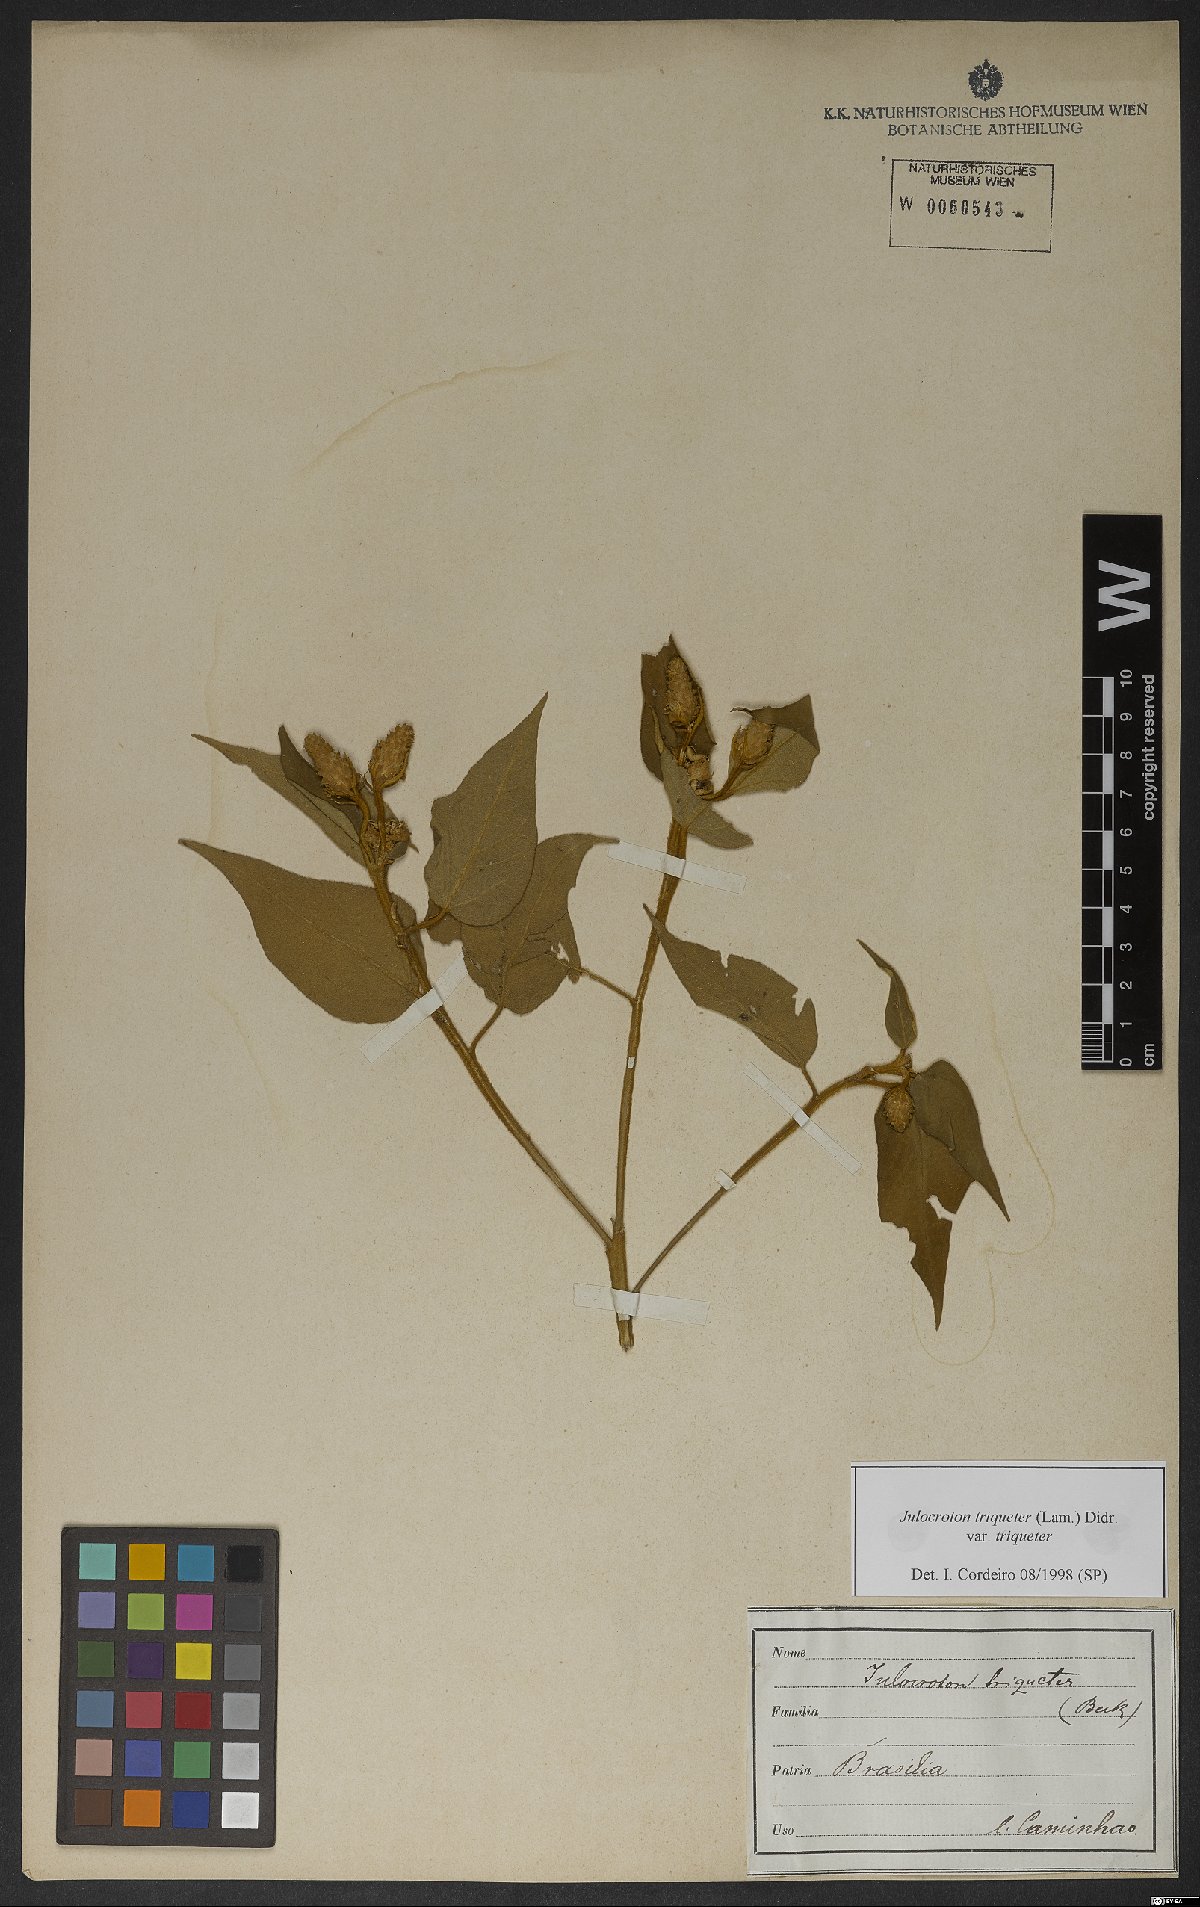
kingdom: Plantae
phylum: Tracheophyta
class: Magnoliopsida
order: Malpighiales
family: Euphorbiaceae
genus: Croton
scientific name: Croton triqueter
